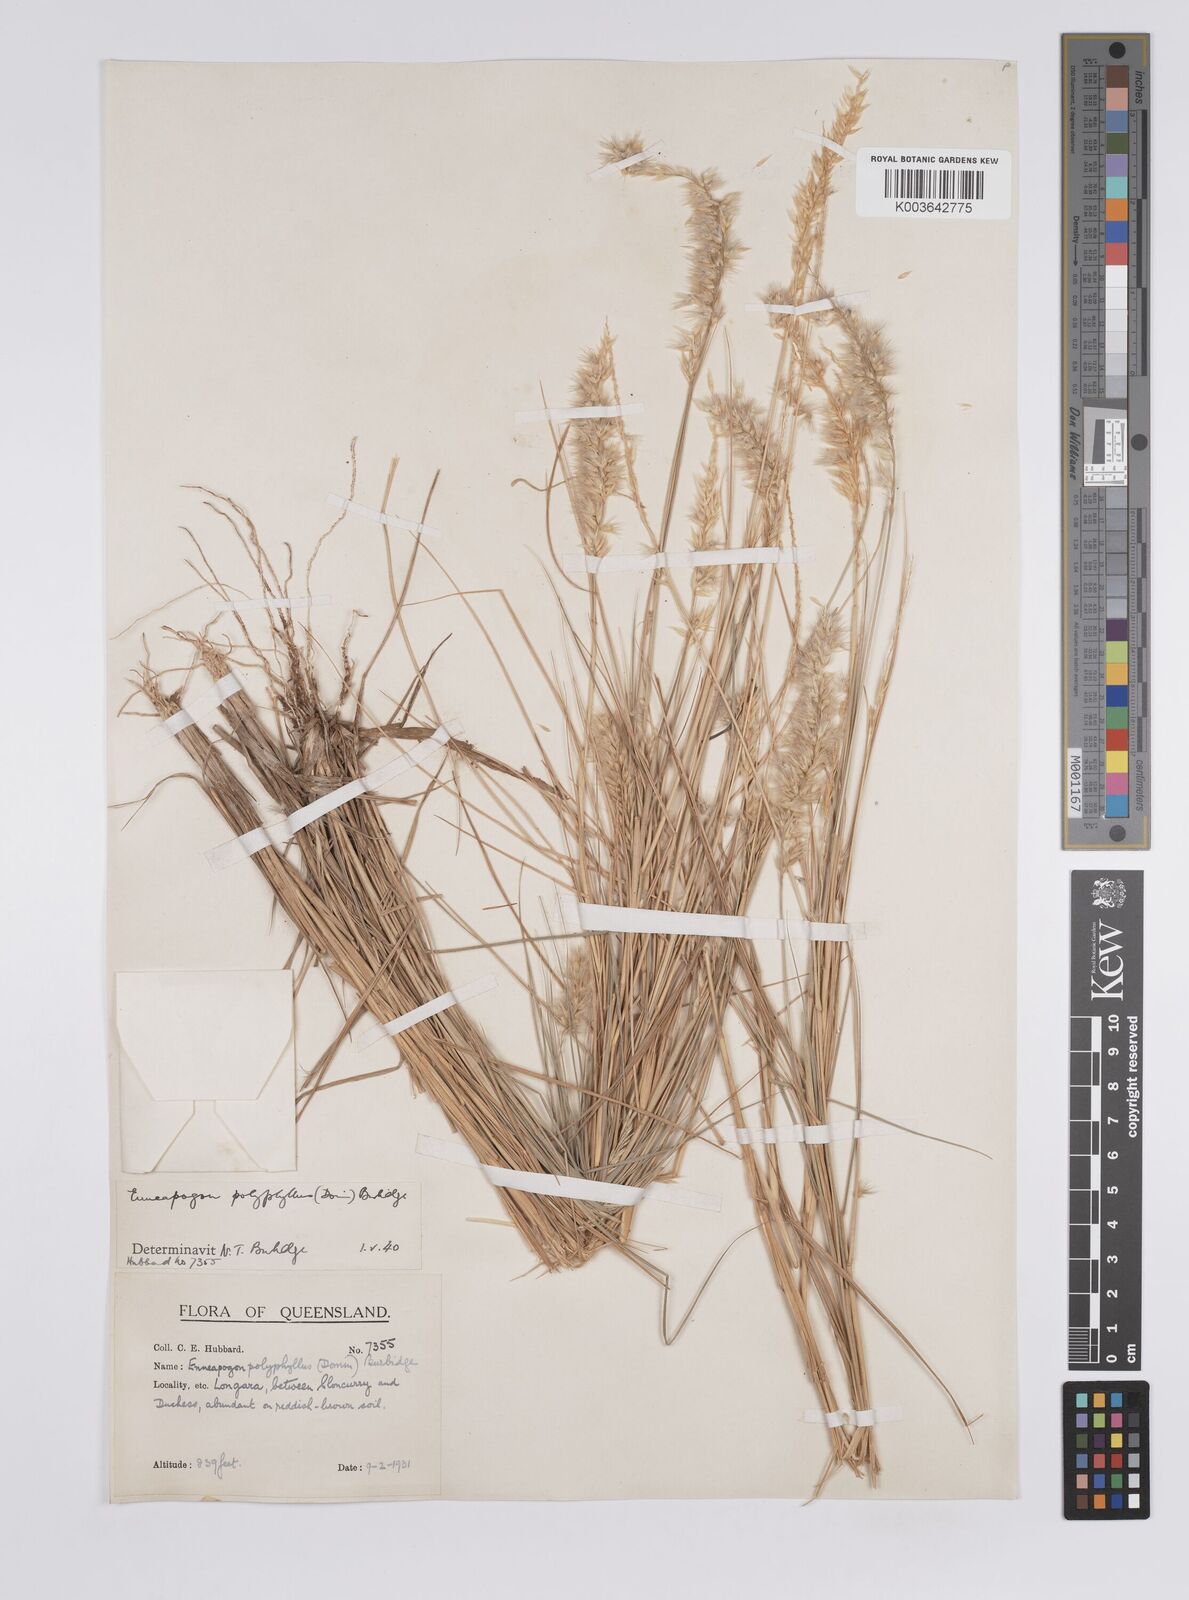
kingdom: Plantae
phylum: Tracheophyta
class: Liliopsida
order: Poales
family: Poaceae
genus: Enneapogon
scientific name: Enneapogon polyphyllus
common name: Leafy nineawn
